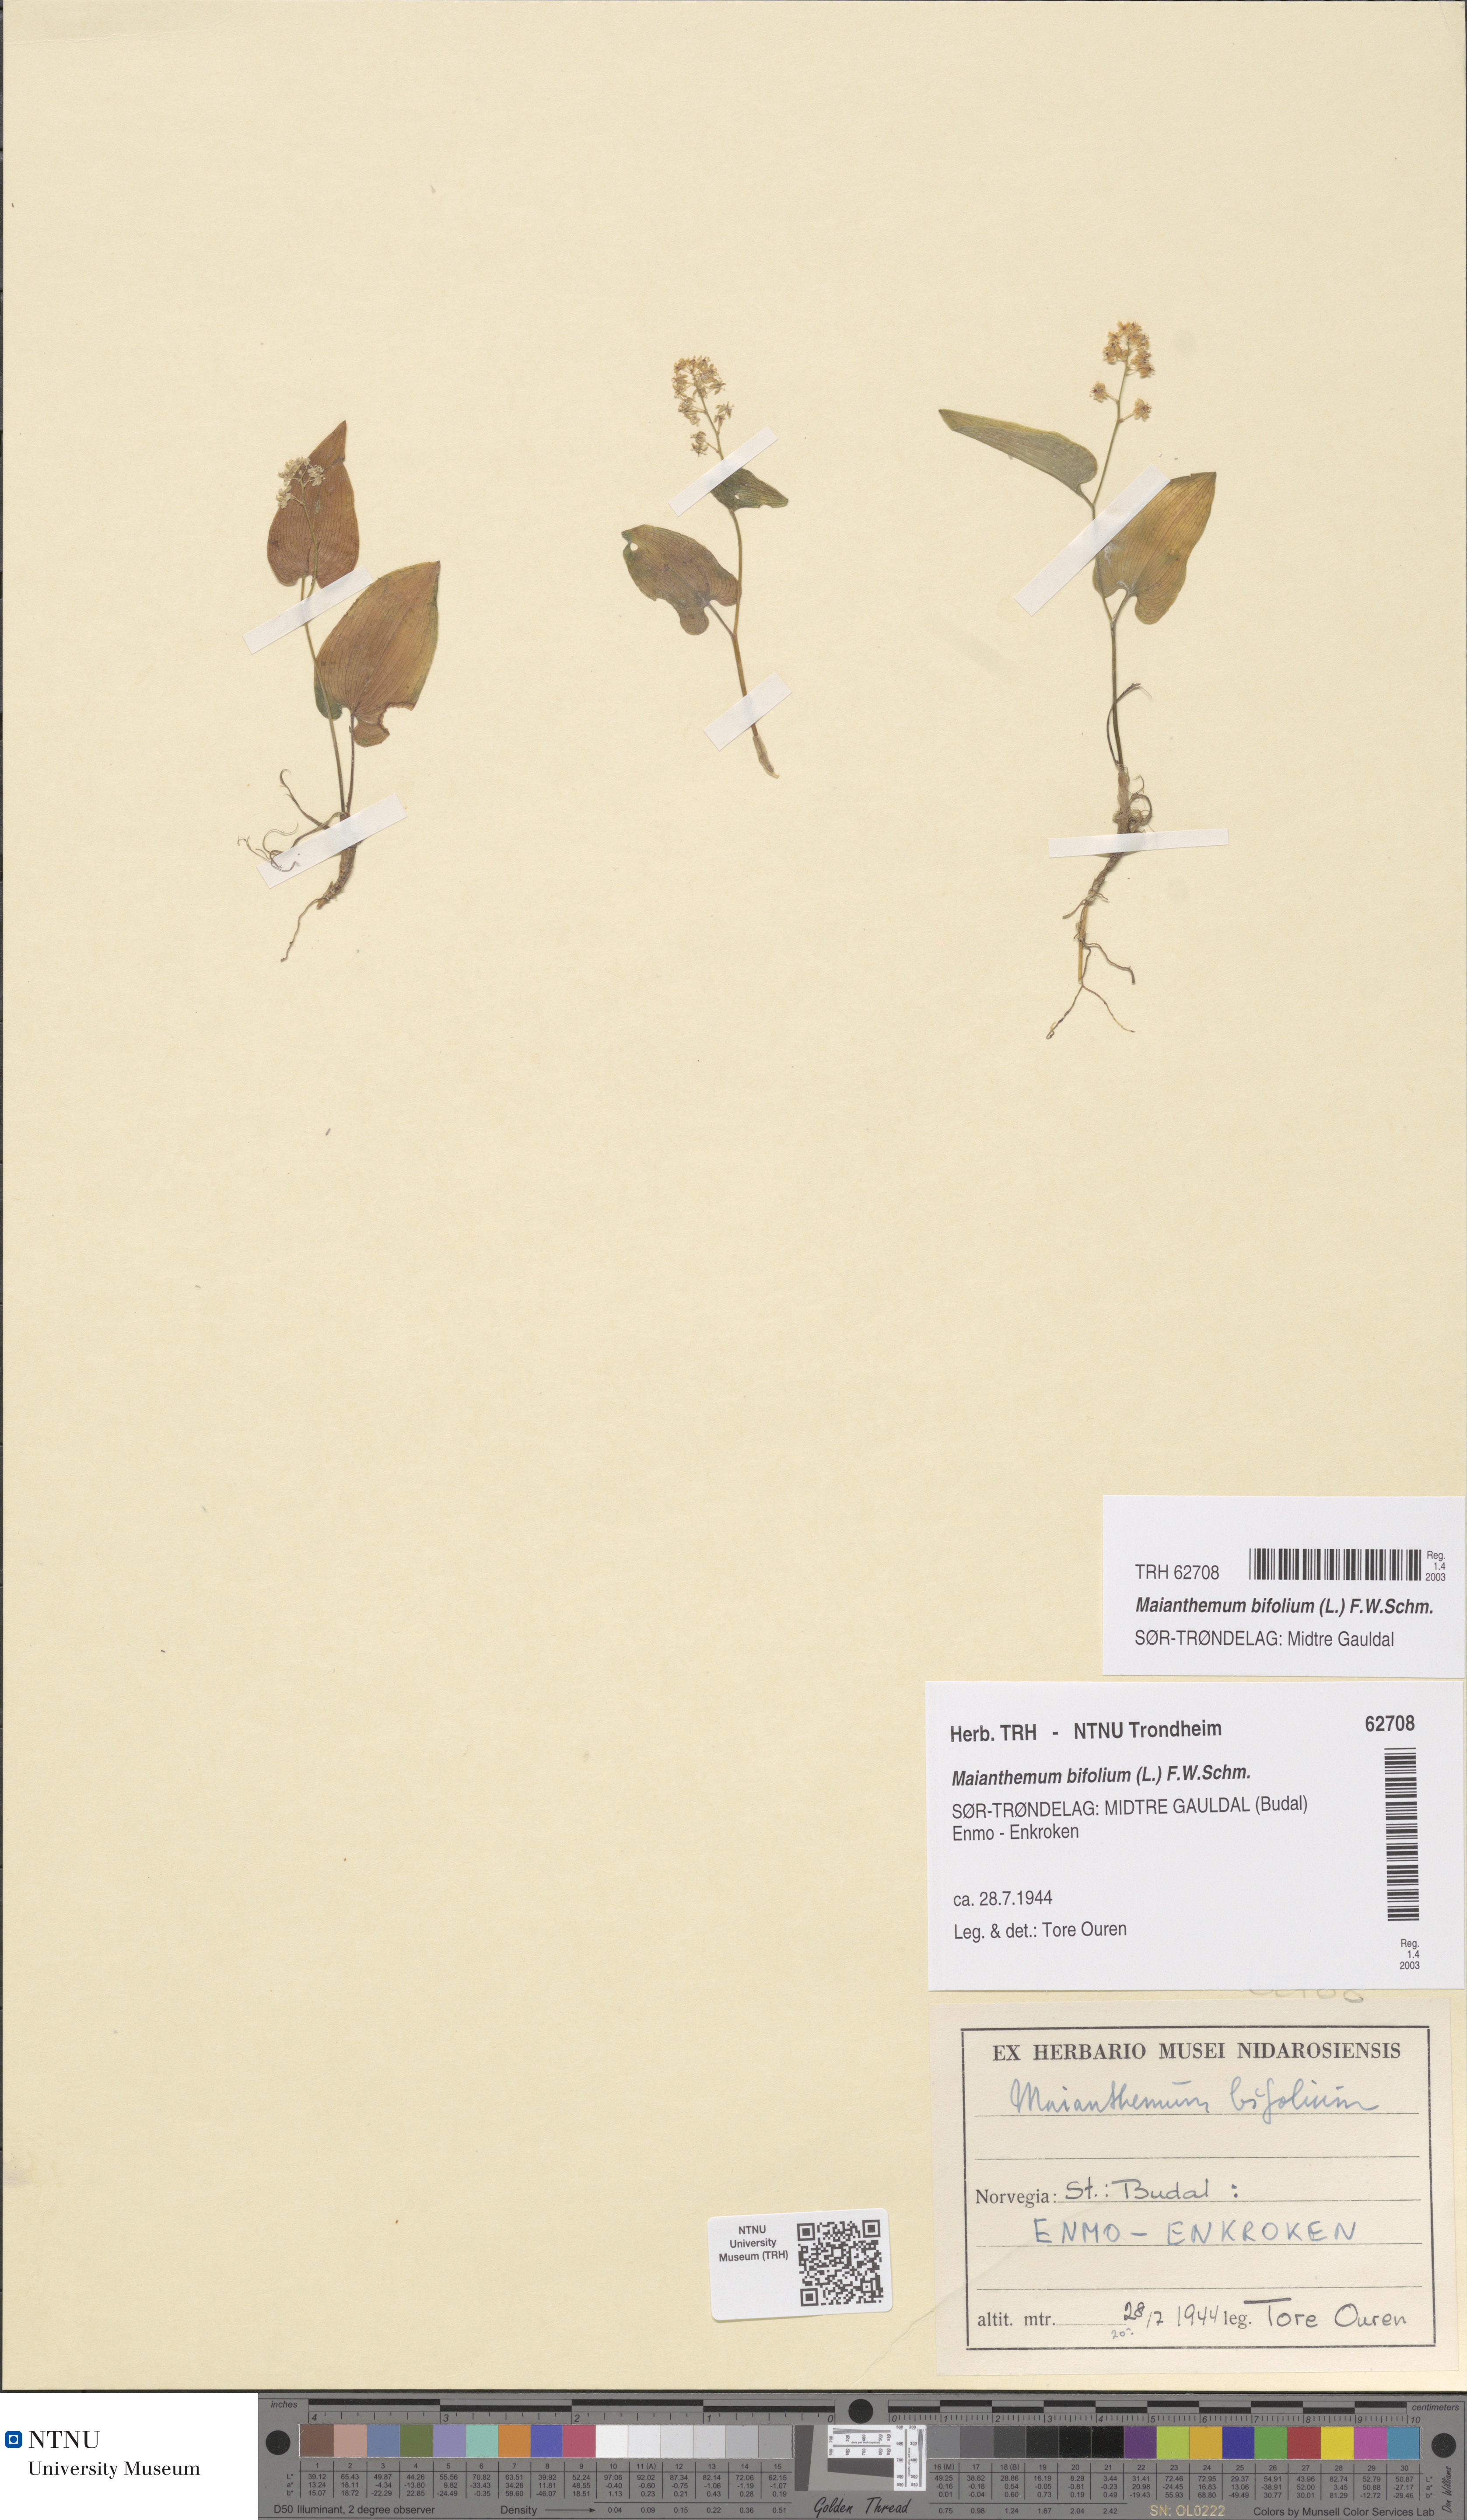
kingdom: Plantae
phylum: Tracheophyta
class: Liliopsida
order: Asparagales
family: Asparagaceae
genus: Maianthemum
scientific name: Maianthemum bifolium
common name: May lily
